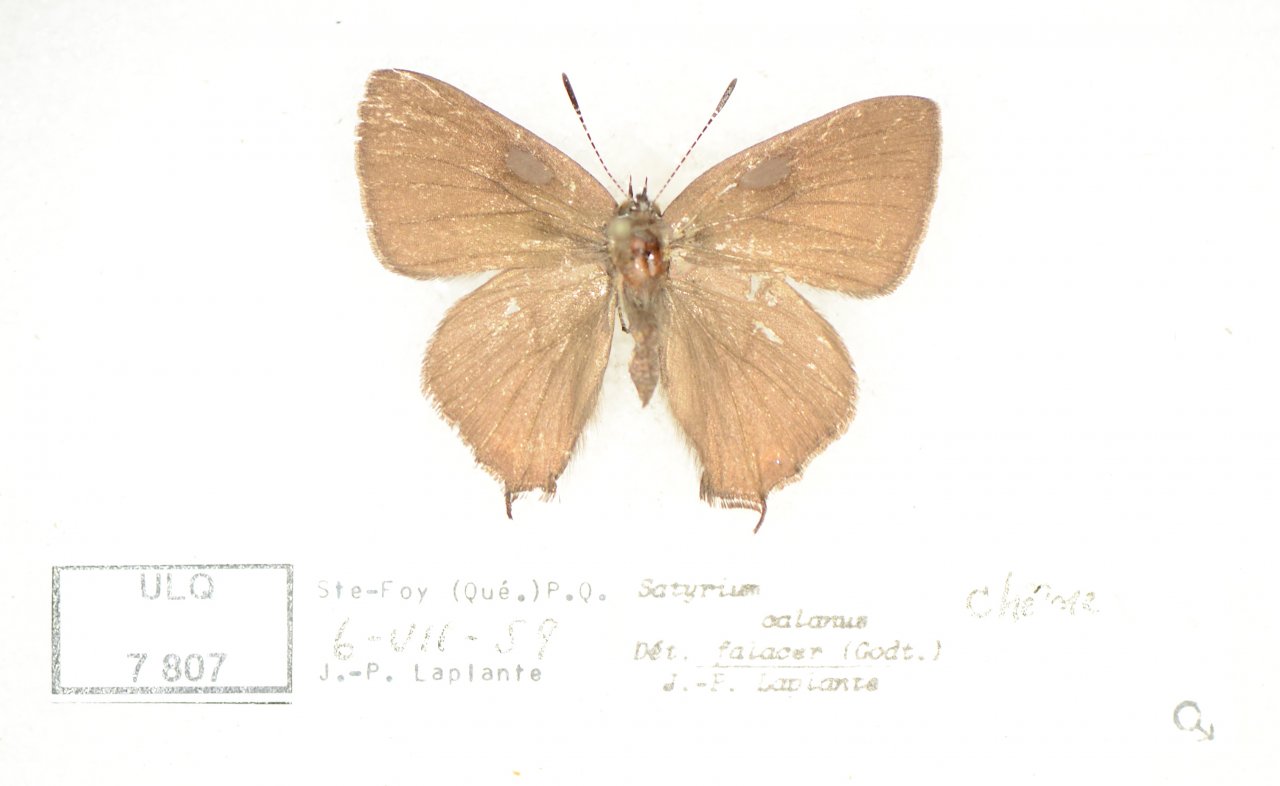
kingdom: Animalia
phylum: Arthropoda
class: Insecta
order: Lepidoptera
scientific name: Lepidoptera
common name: Butterflies
